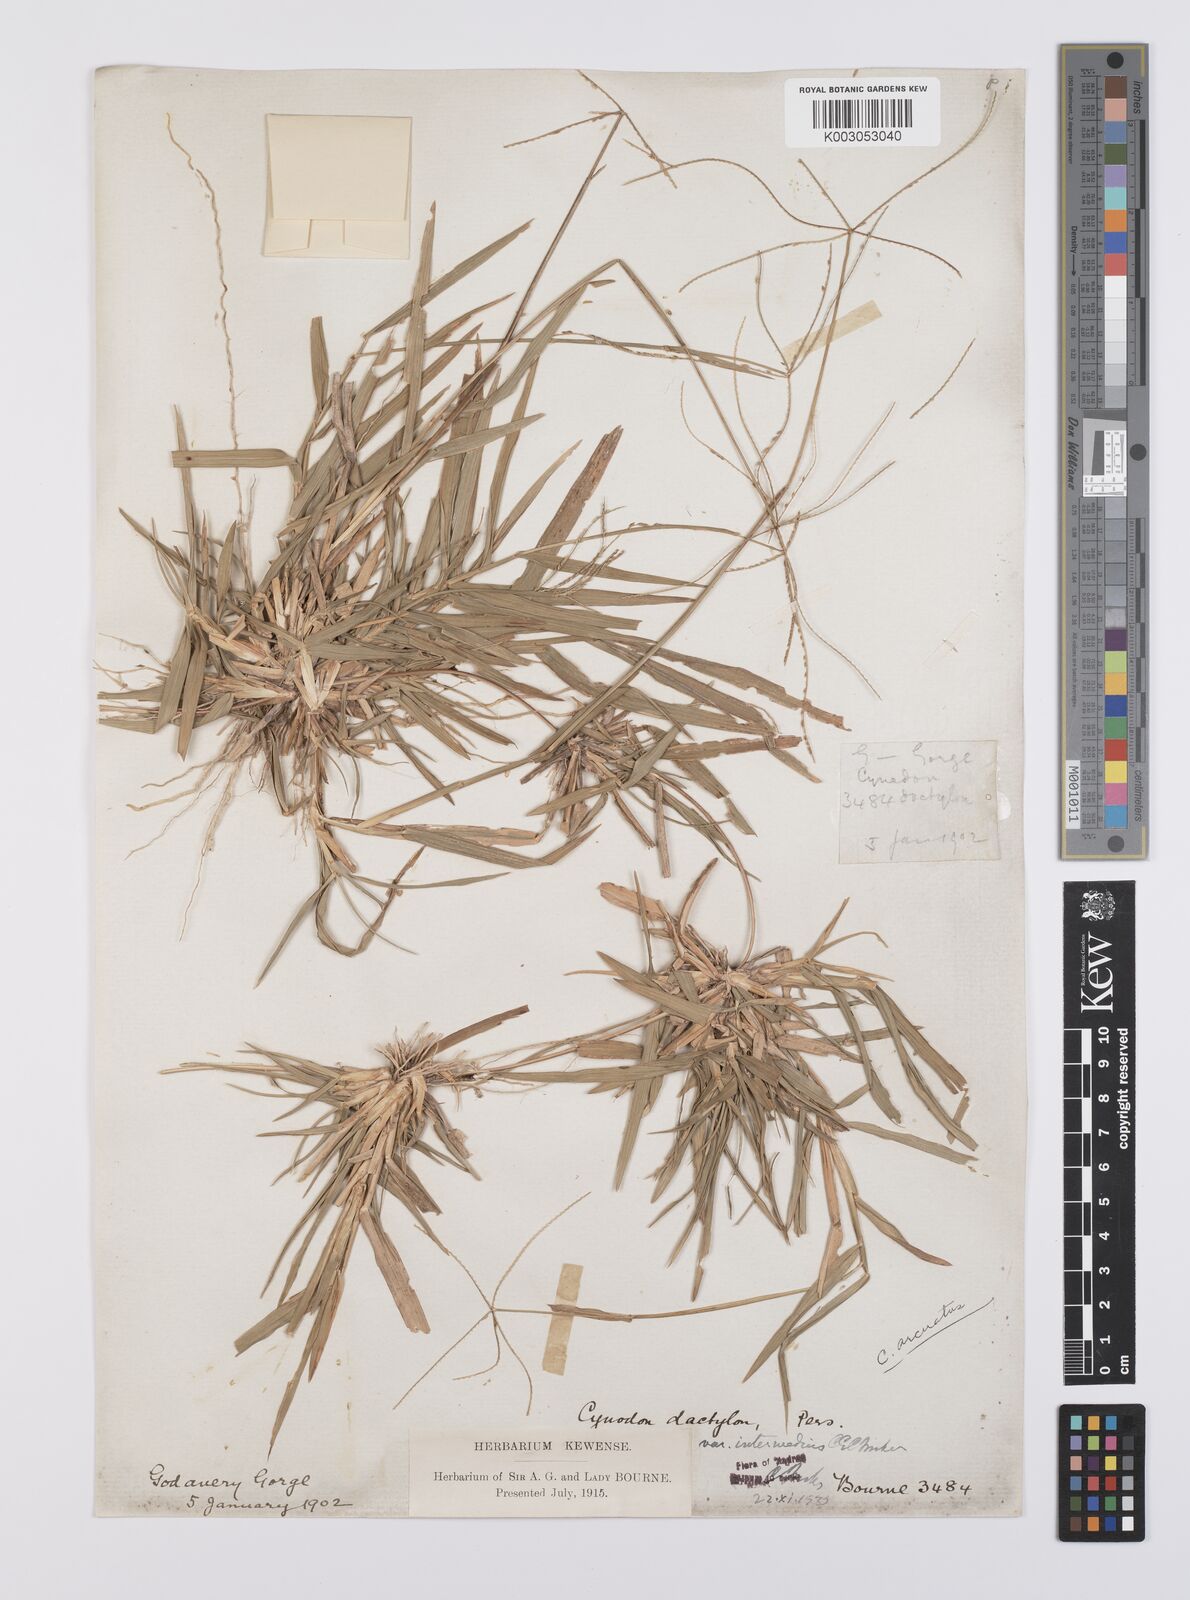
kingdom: Plantae
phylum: Tracheophyta
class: Liliopsida
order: Poales
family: Poaceae
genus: Cynodon
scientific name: Cynodon radiatus
